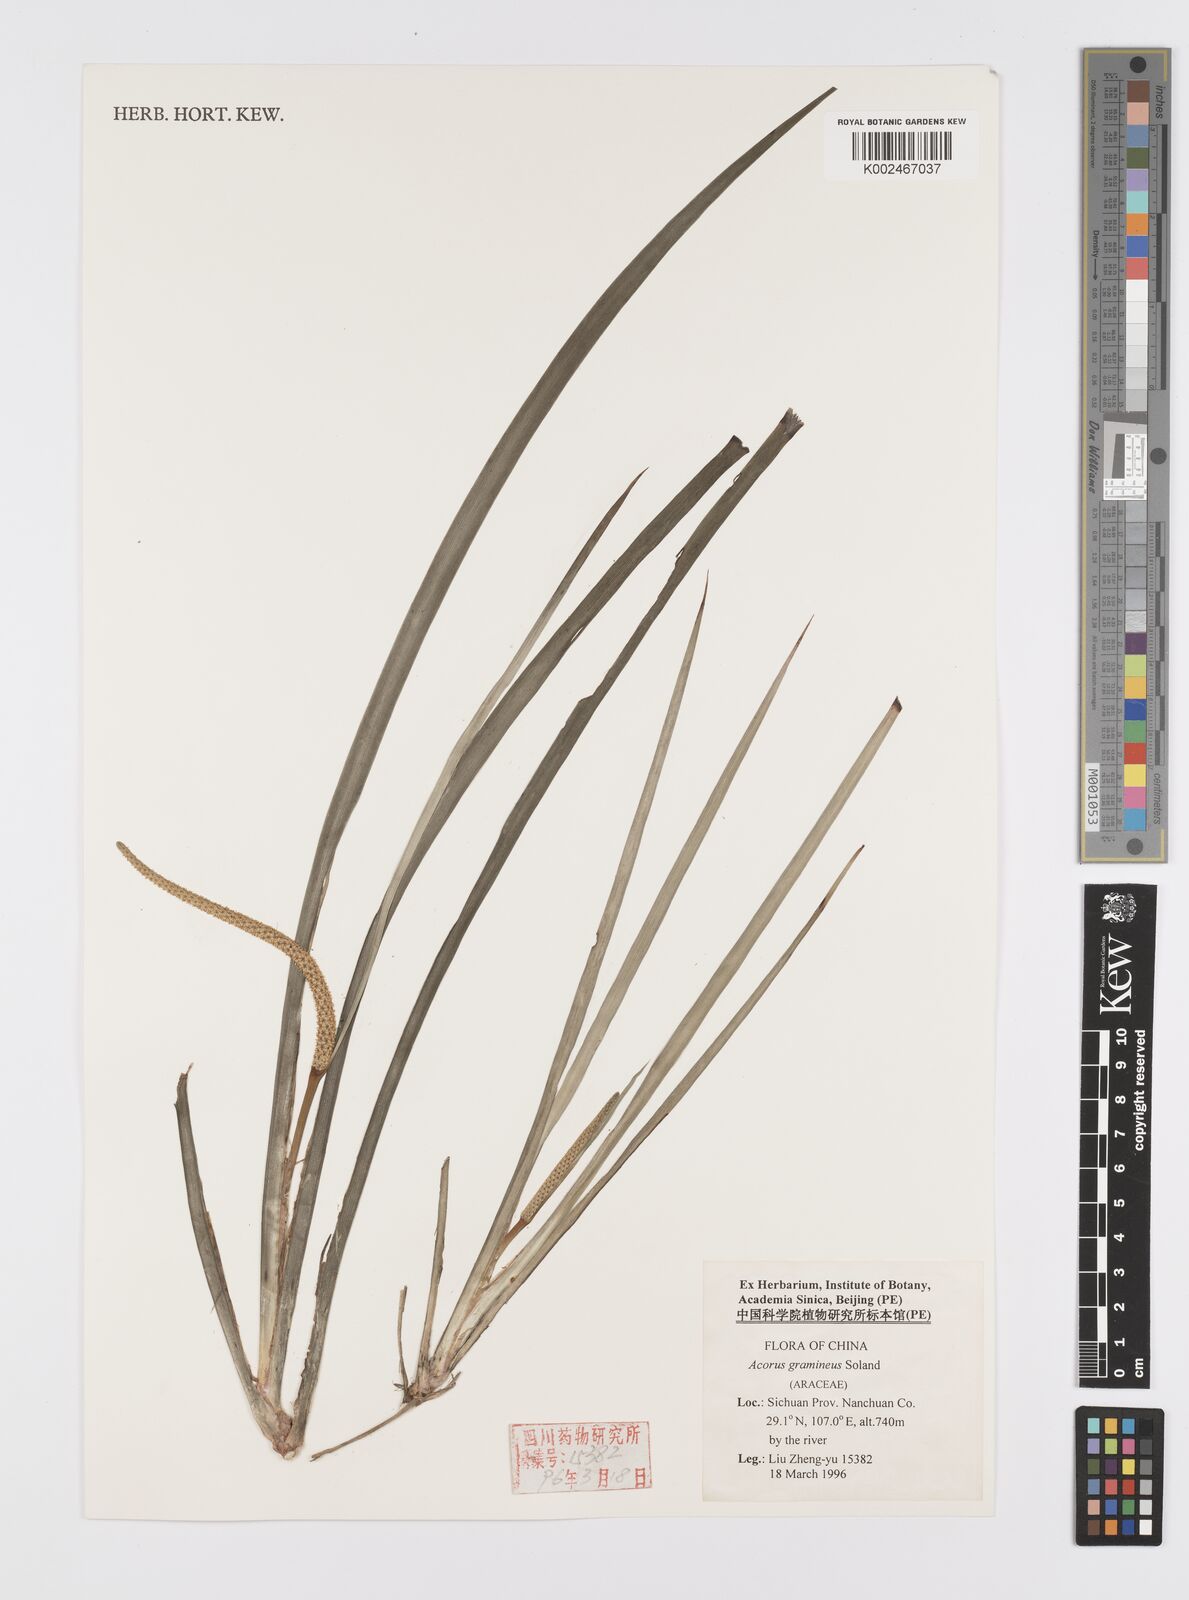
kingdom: Plantae
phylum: Tracheophyta
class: Liliopsida
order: Acorales
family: Acoraceae
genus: Acorus
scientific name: Acorus gramineus
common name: Slender sweet-flag
